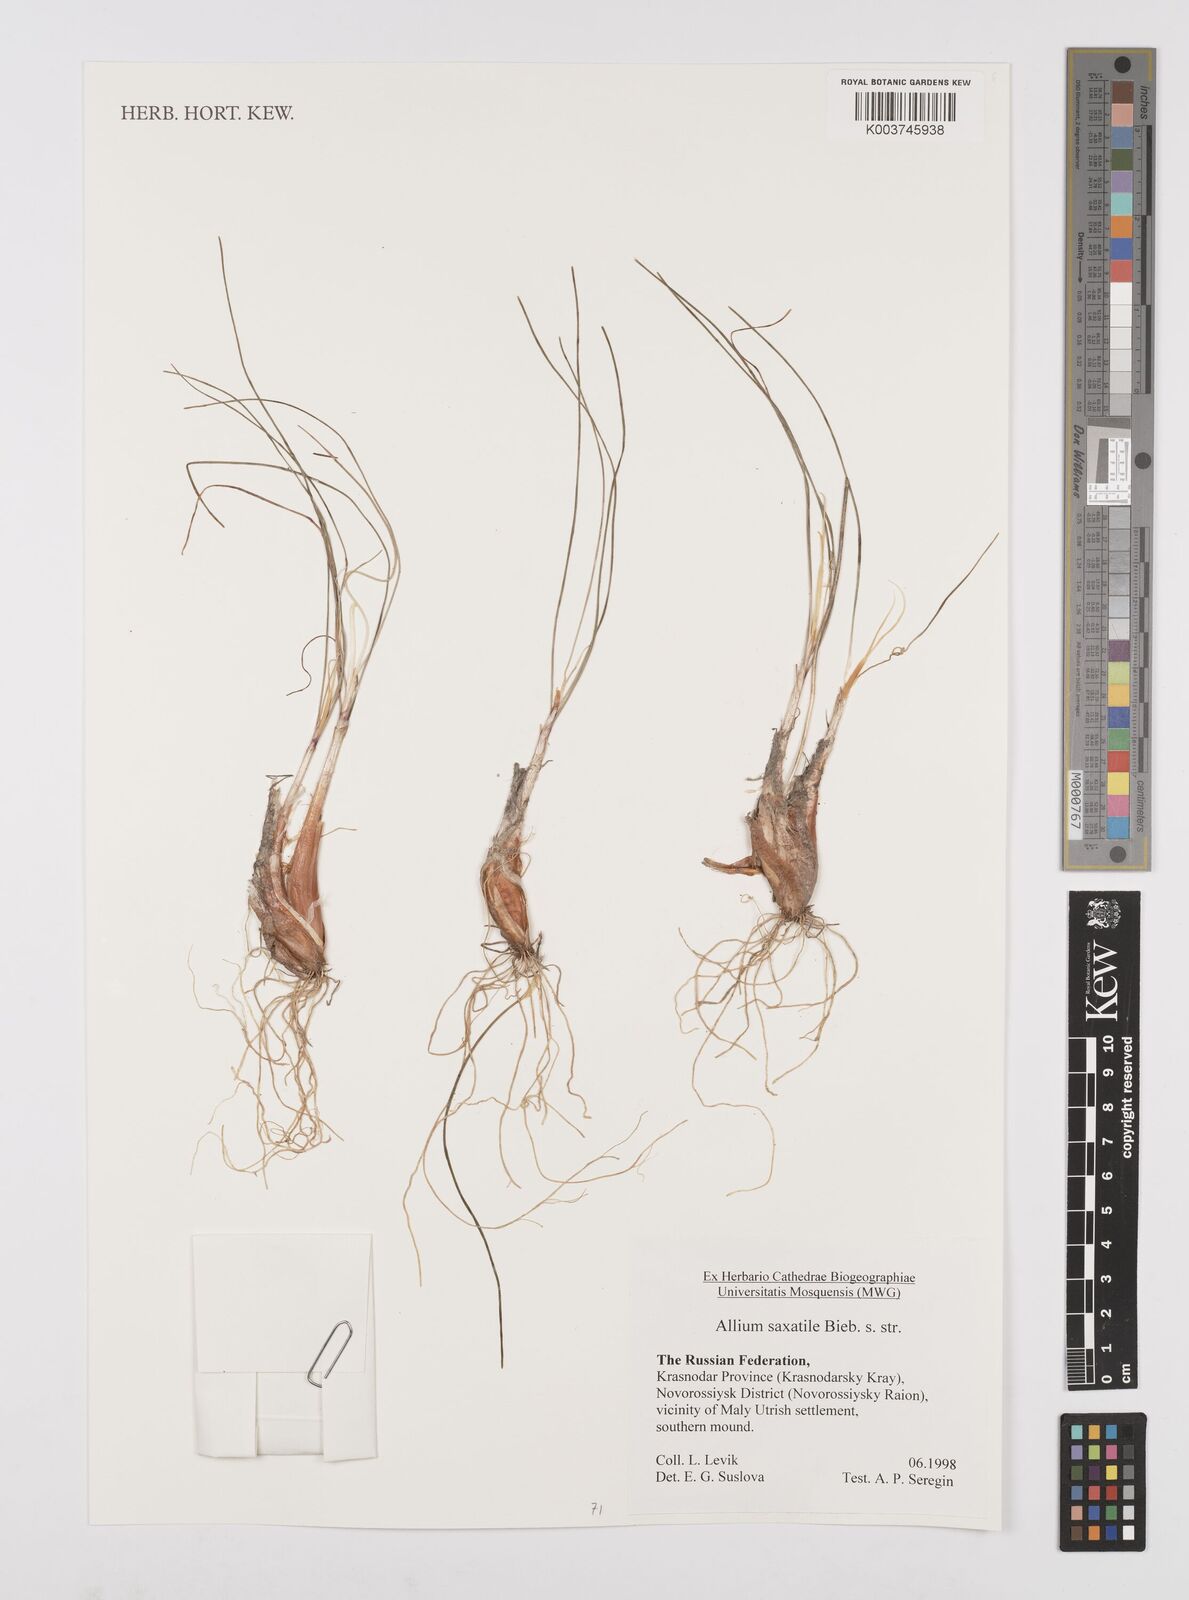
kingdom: Plantae
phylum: Tracheophyta
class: Liliopsida
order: Asparagales
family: Amaryllidaceae
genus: Allium
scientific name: Allium saxatile
